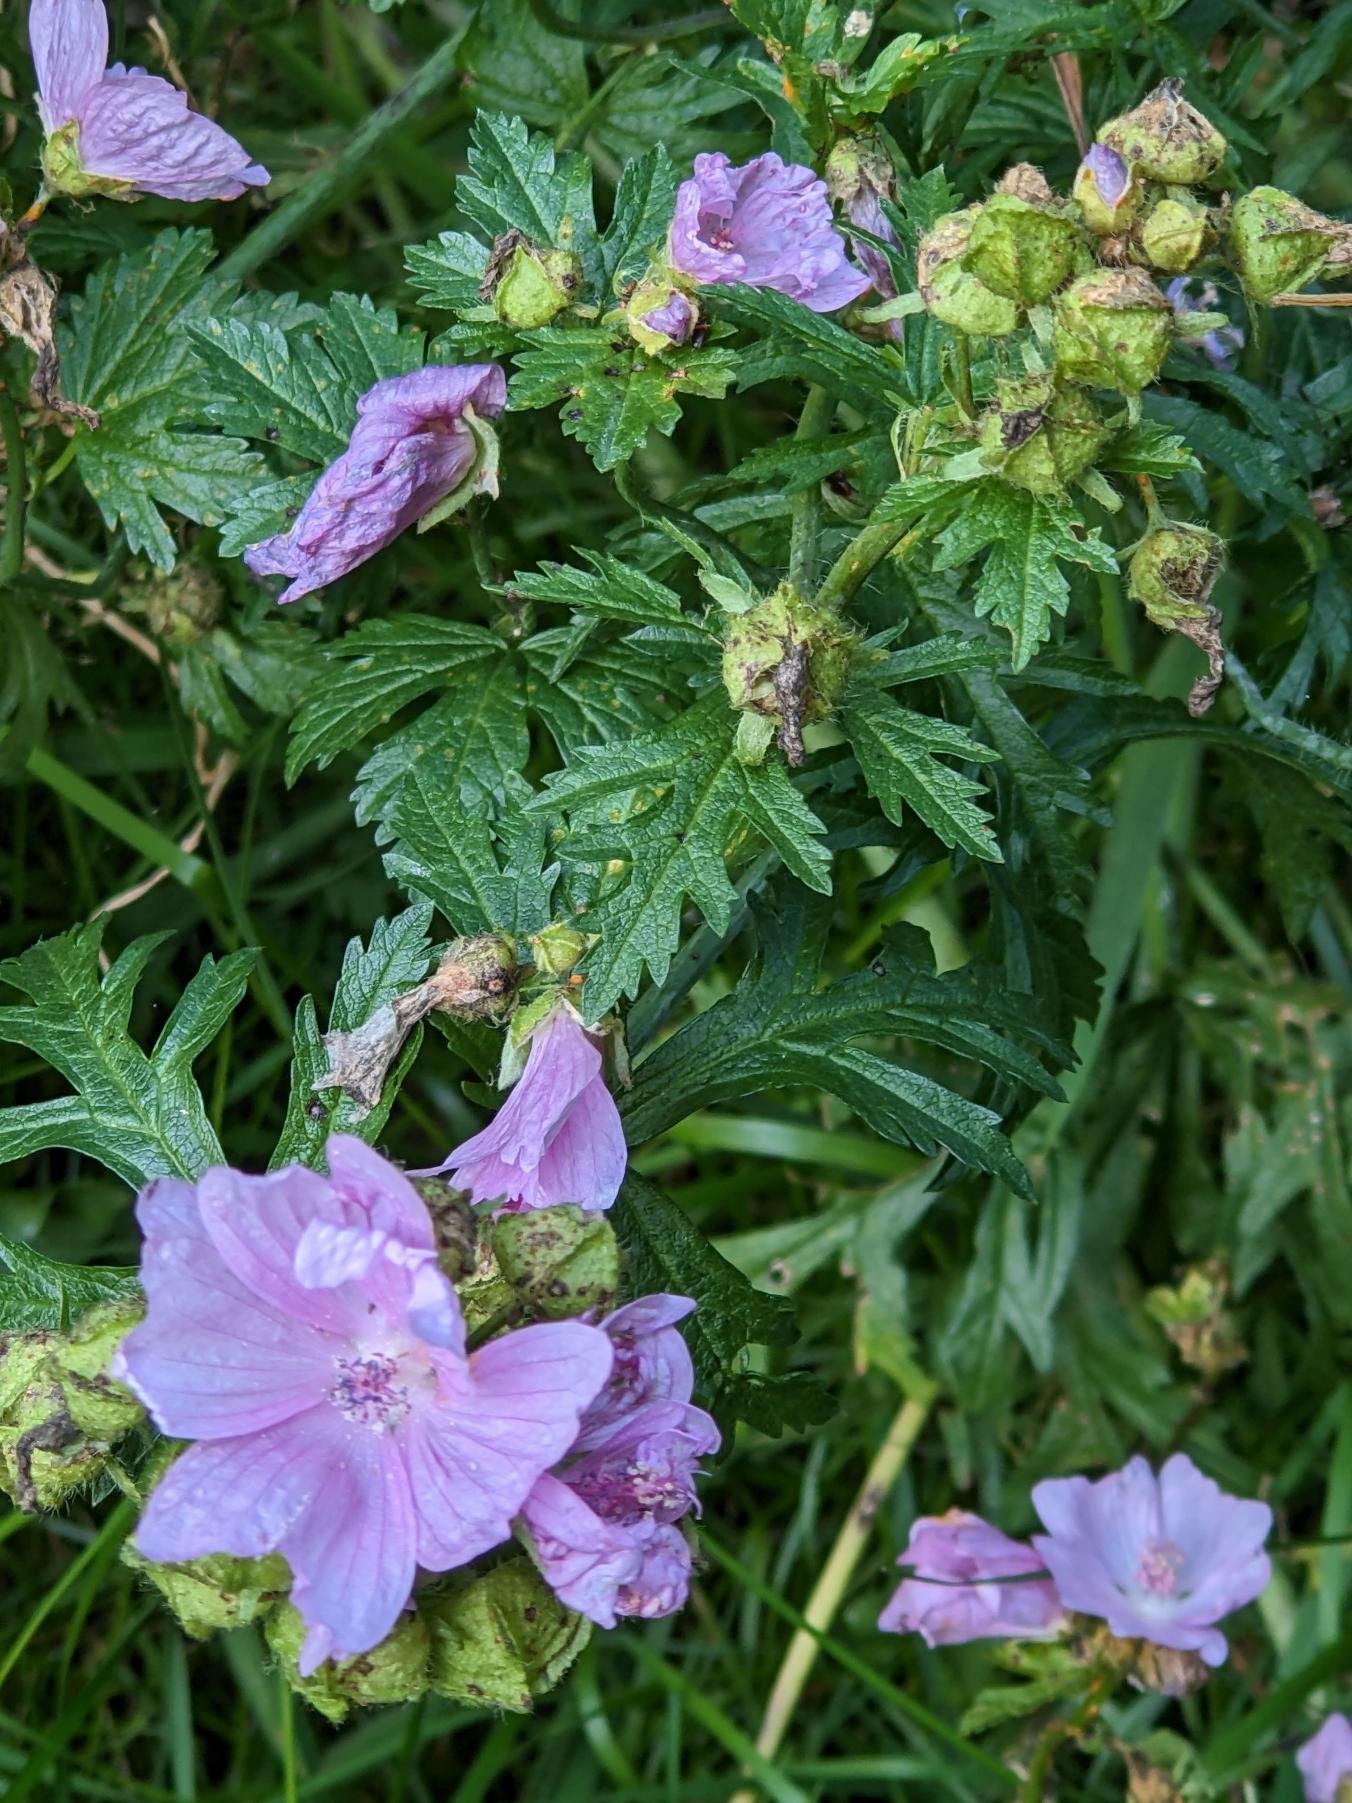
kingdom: Plantae
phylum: Tracheophyta
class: Magnoliopsida
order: Malvales
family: Malvaceae
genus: Malva
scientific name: Malva moschata
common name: Moskus-katost
